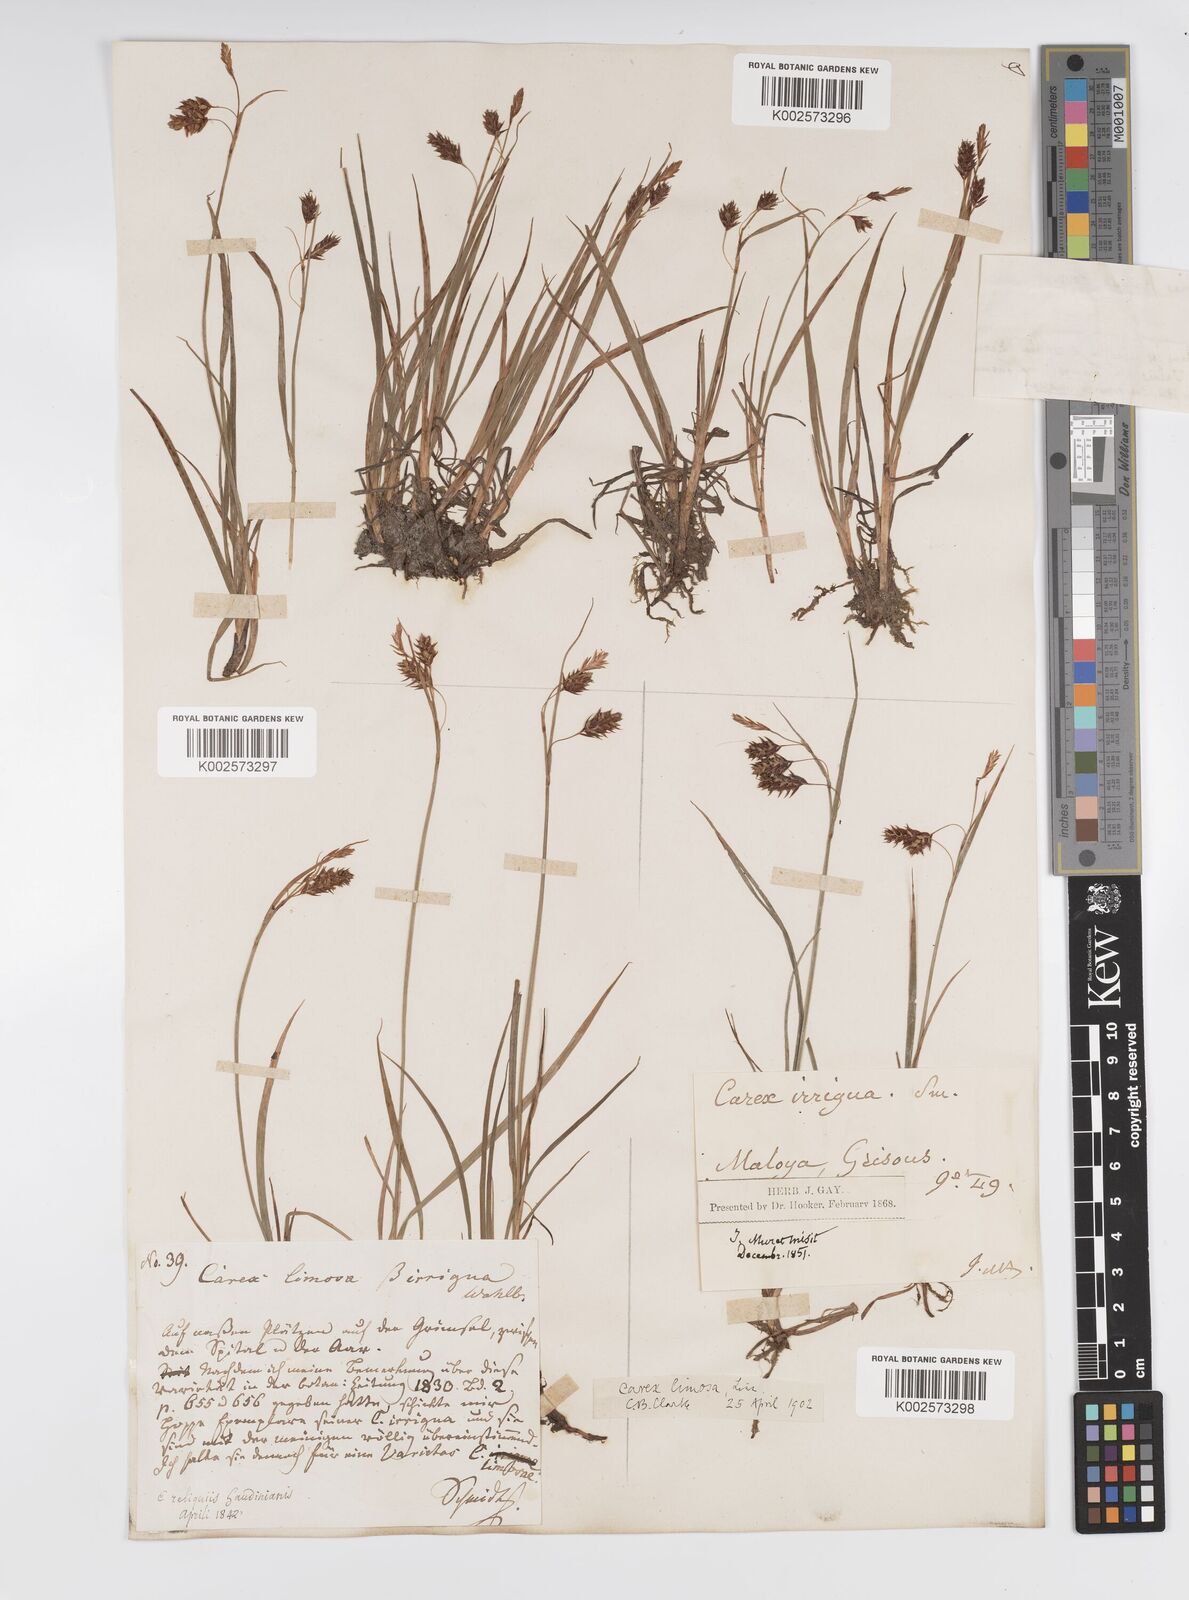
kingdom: Plantae
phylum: Tracheophyta
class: Liliopsida
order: Poales
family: Cyperaceae
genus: Carex
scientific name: Carex magellanica
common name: Bog sedge
